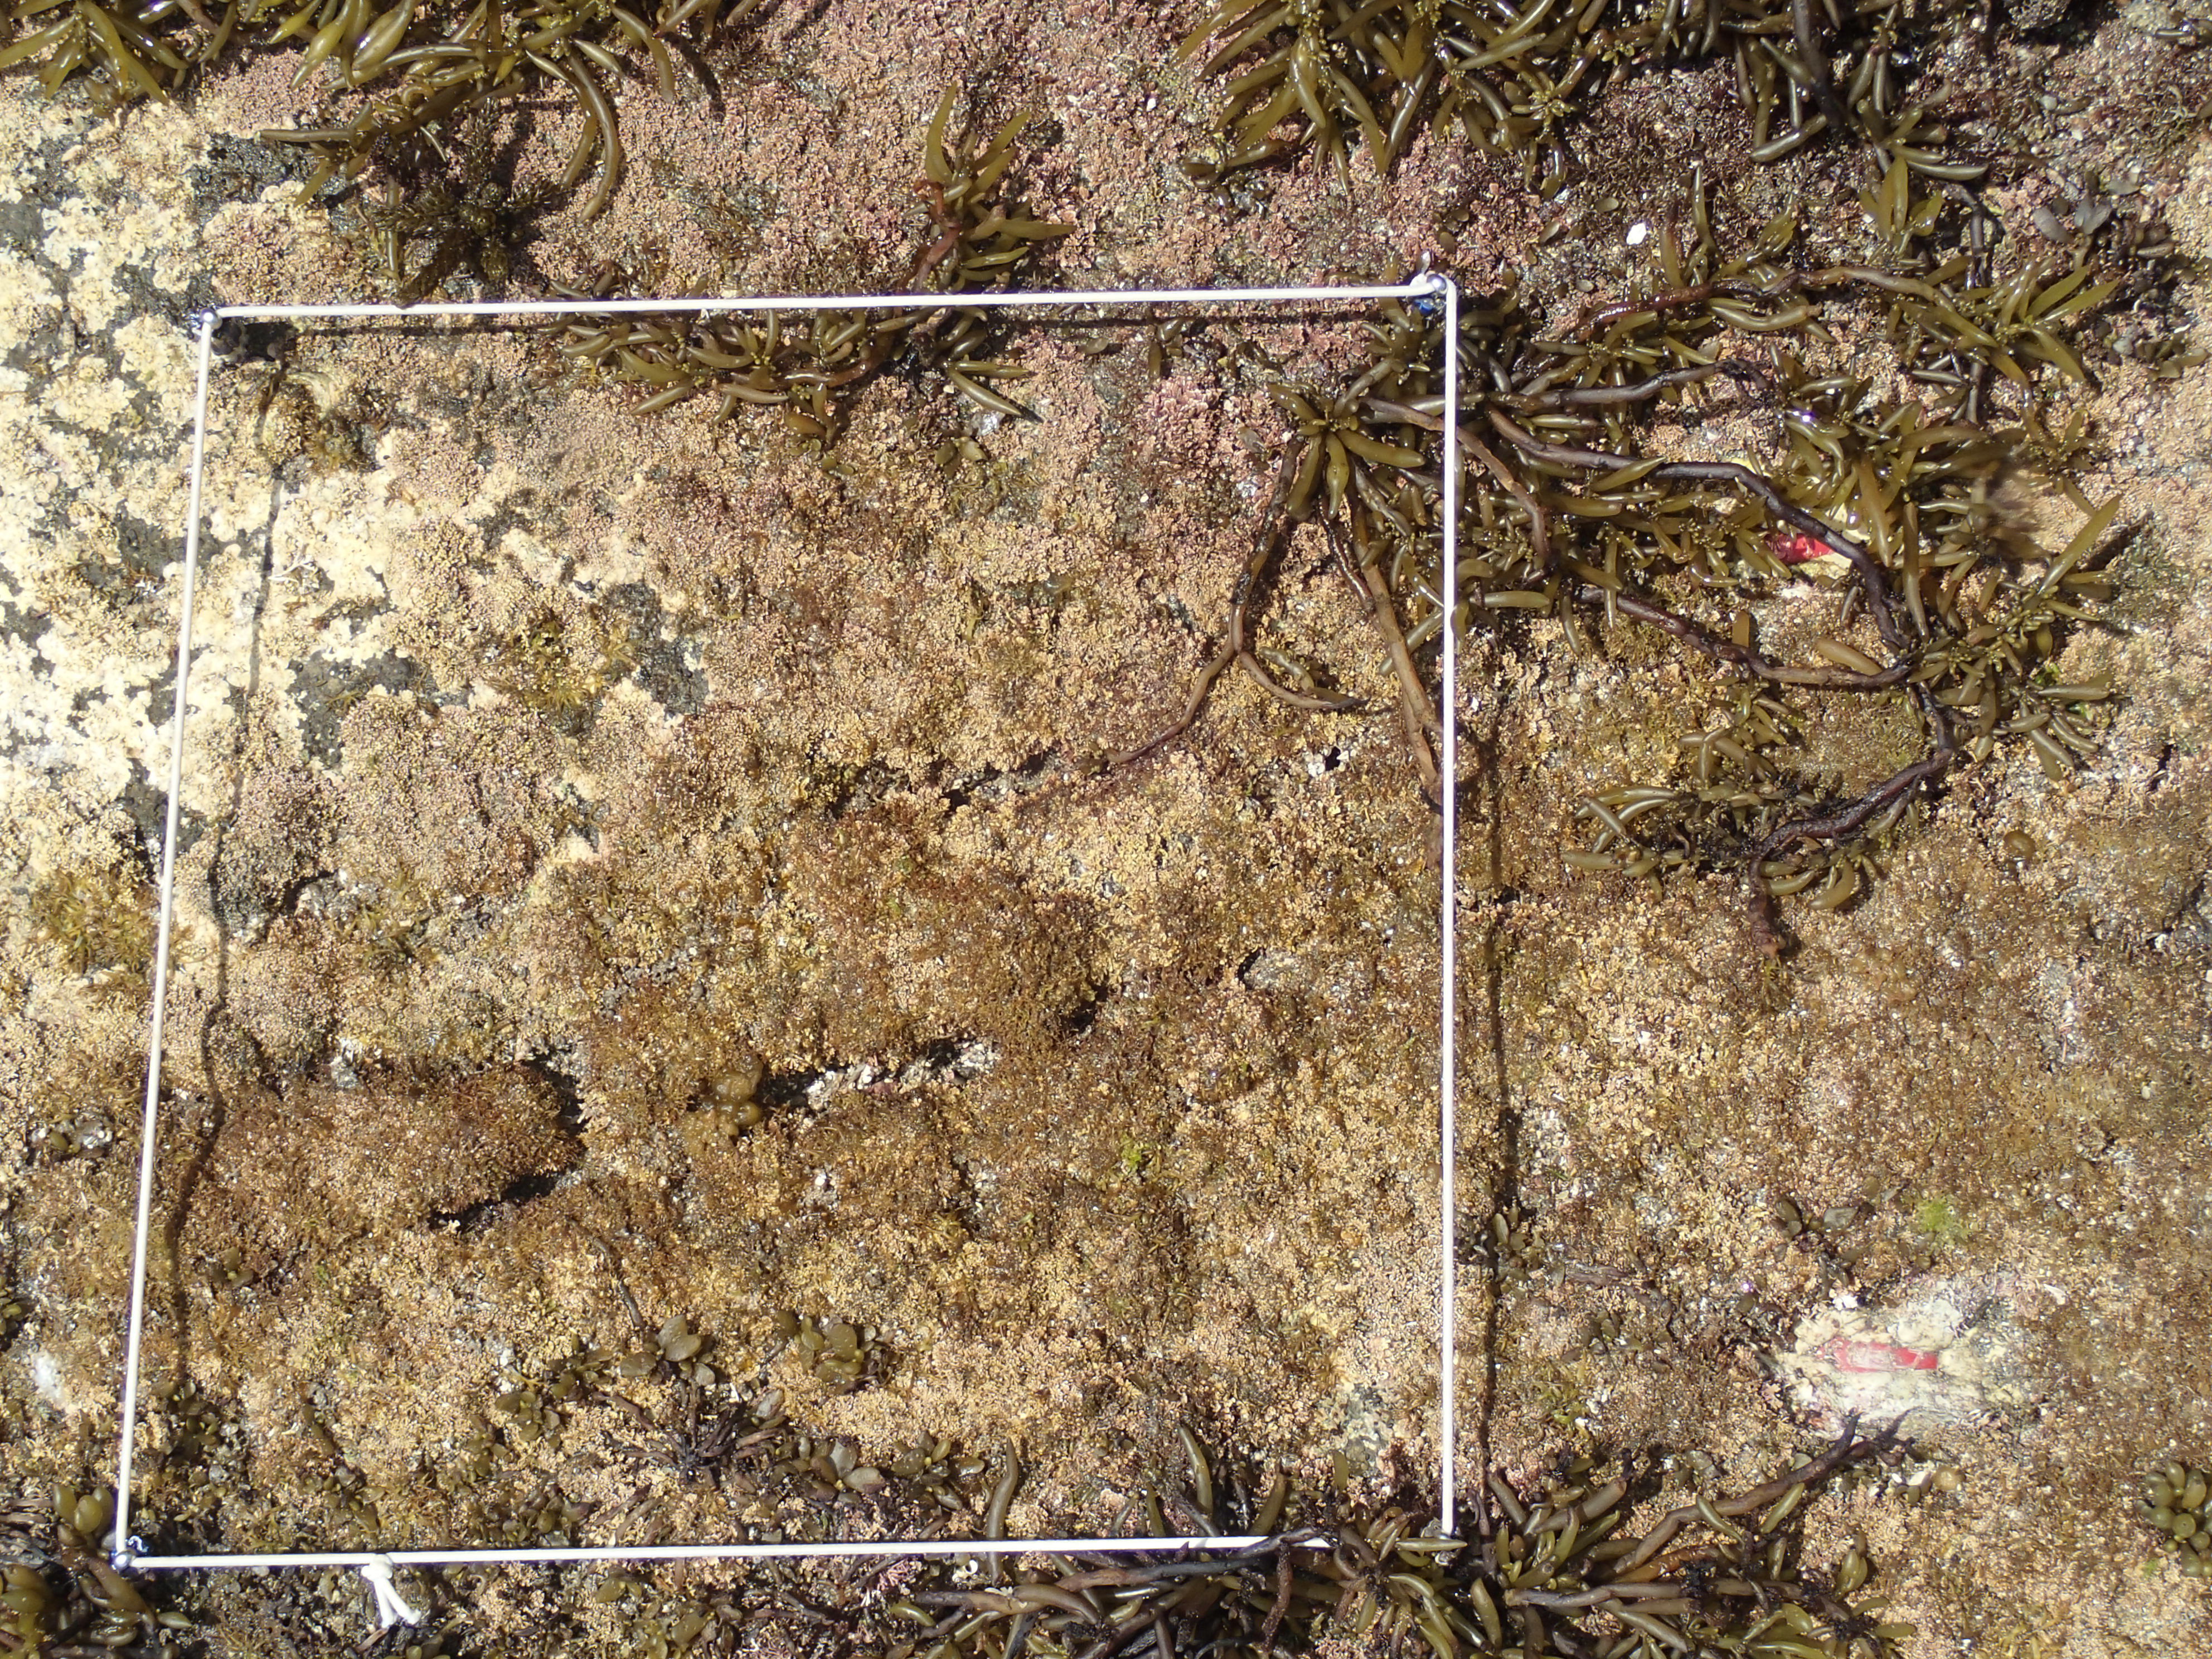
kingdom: Chromista
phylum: Ochrophyta
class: Phaeophyceae
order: Fucales
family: Sargassaceae
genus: Sargassum
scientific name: Sargassum fusiforme
